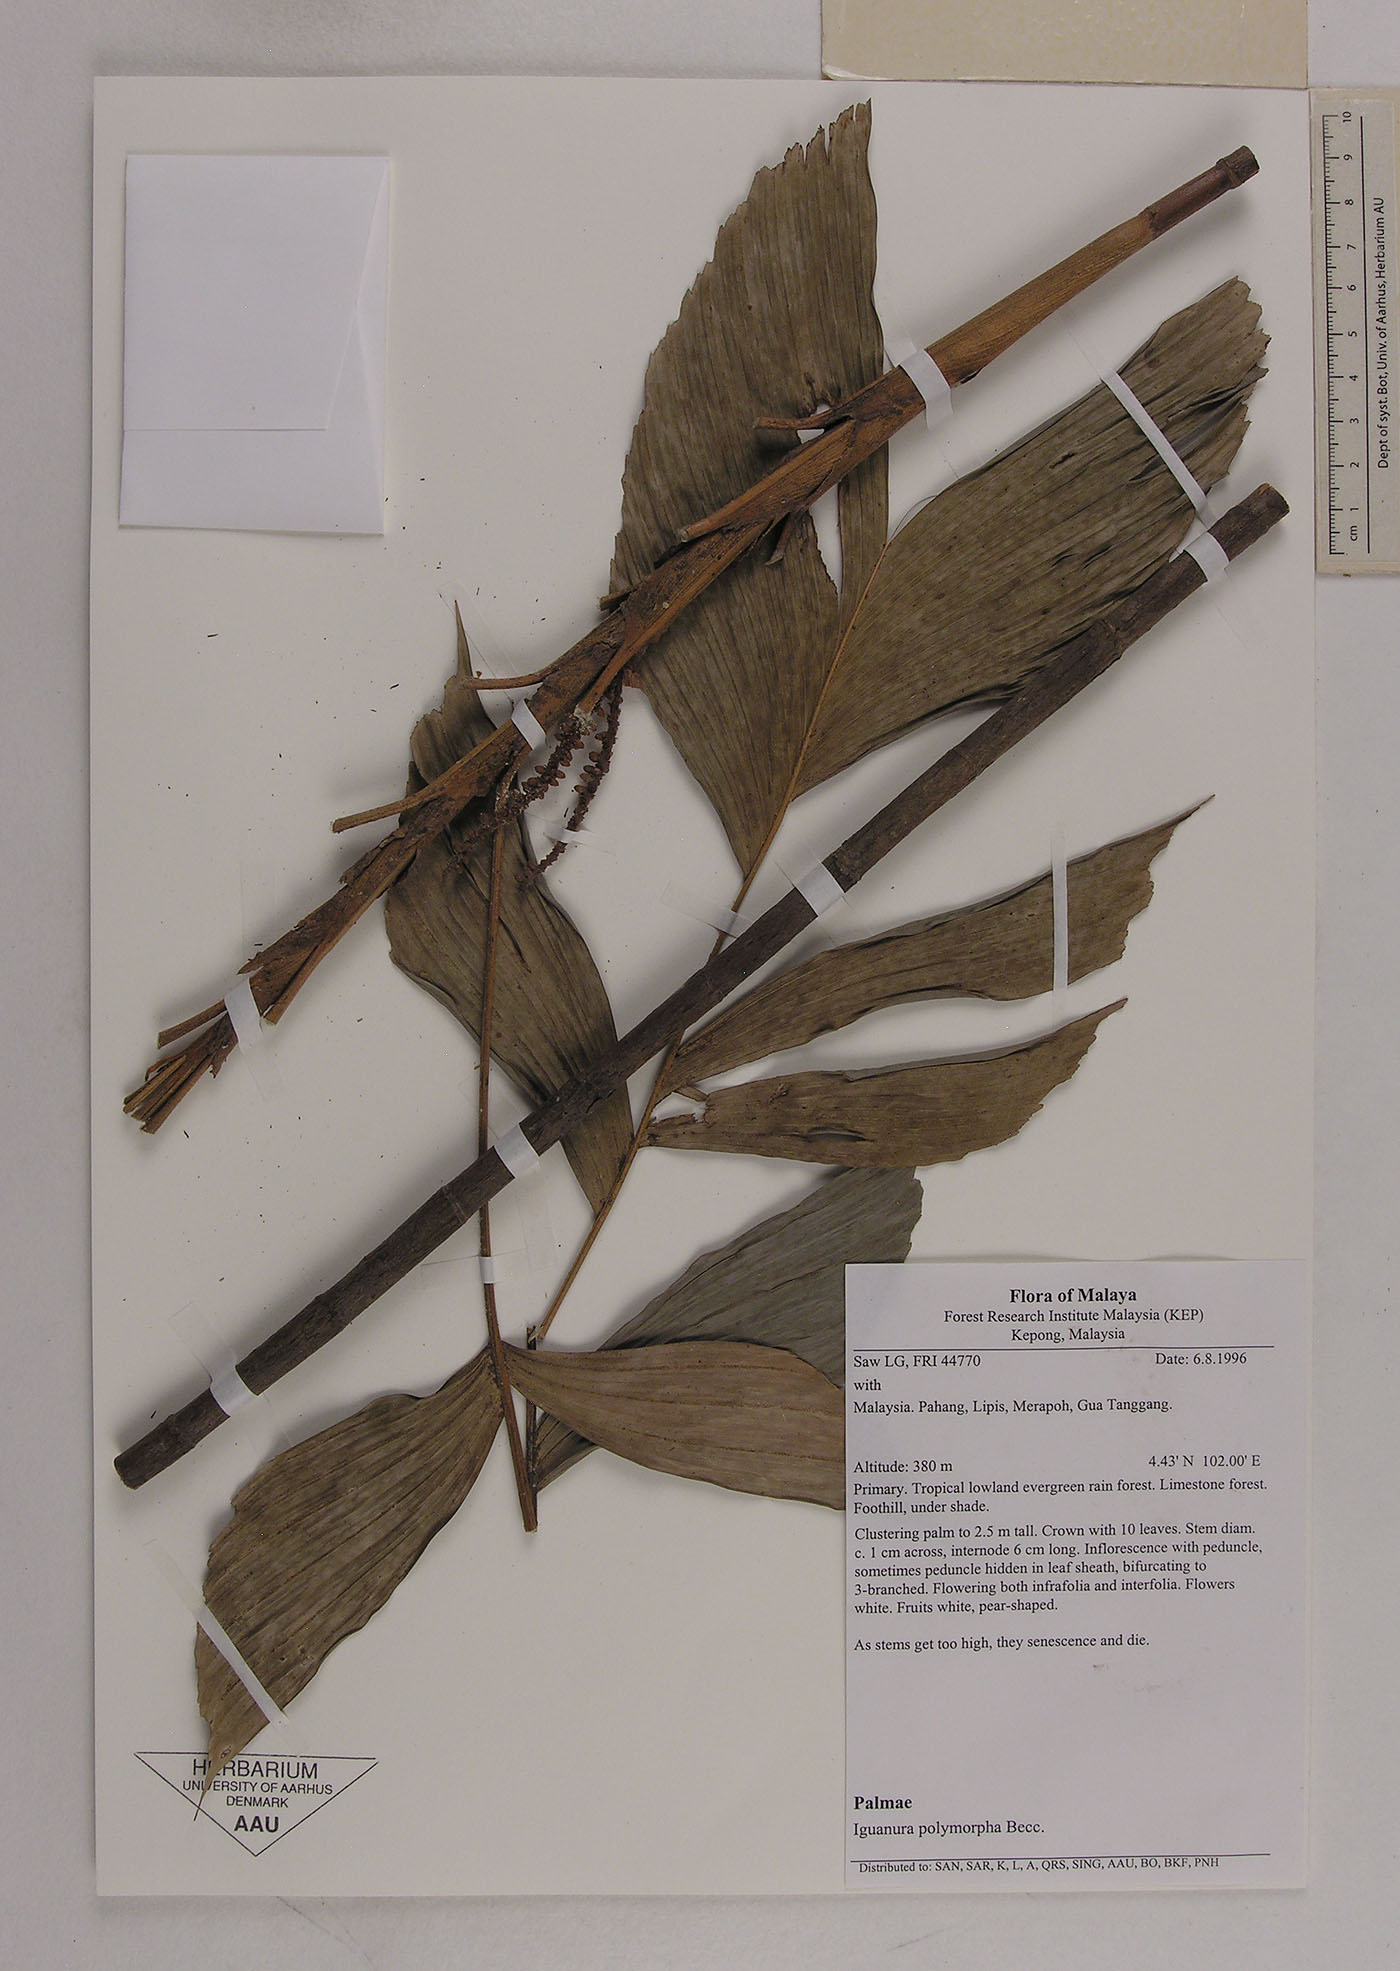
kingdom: Plantae
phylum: Tracheophyta
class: Liliopsida
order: Arecales
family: Arecaceae
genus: Iguanura
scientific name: Iguanura polymorpha
